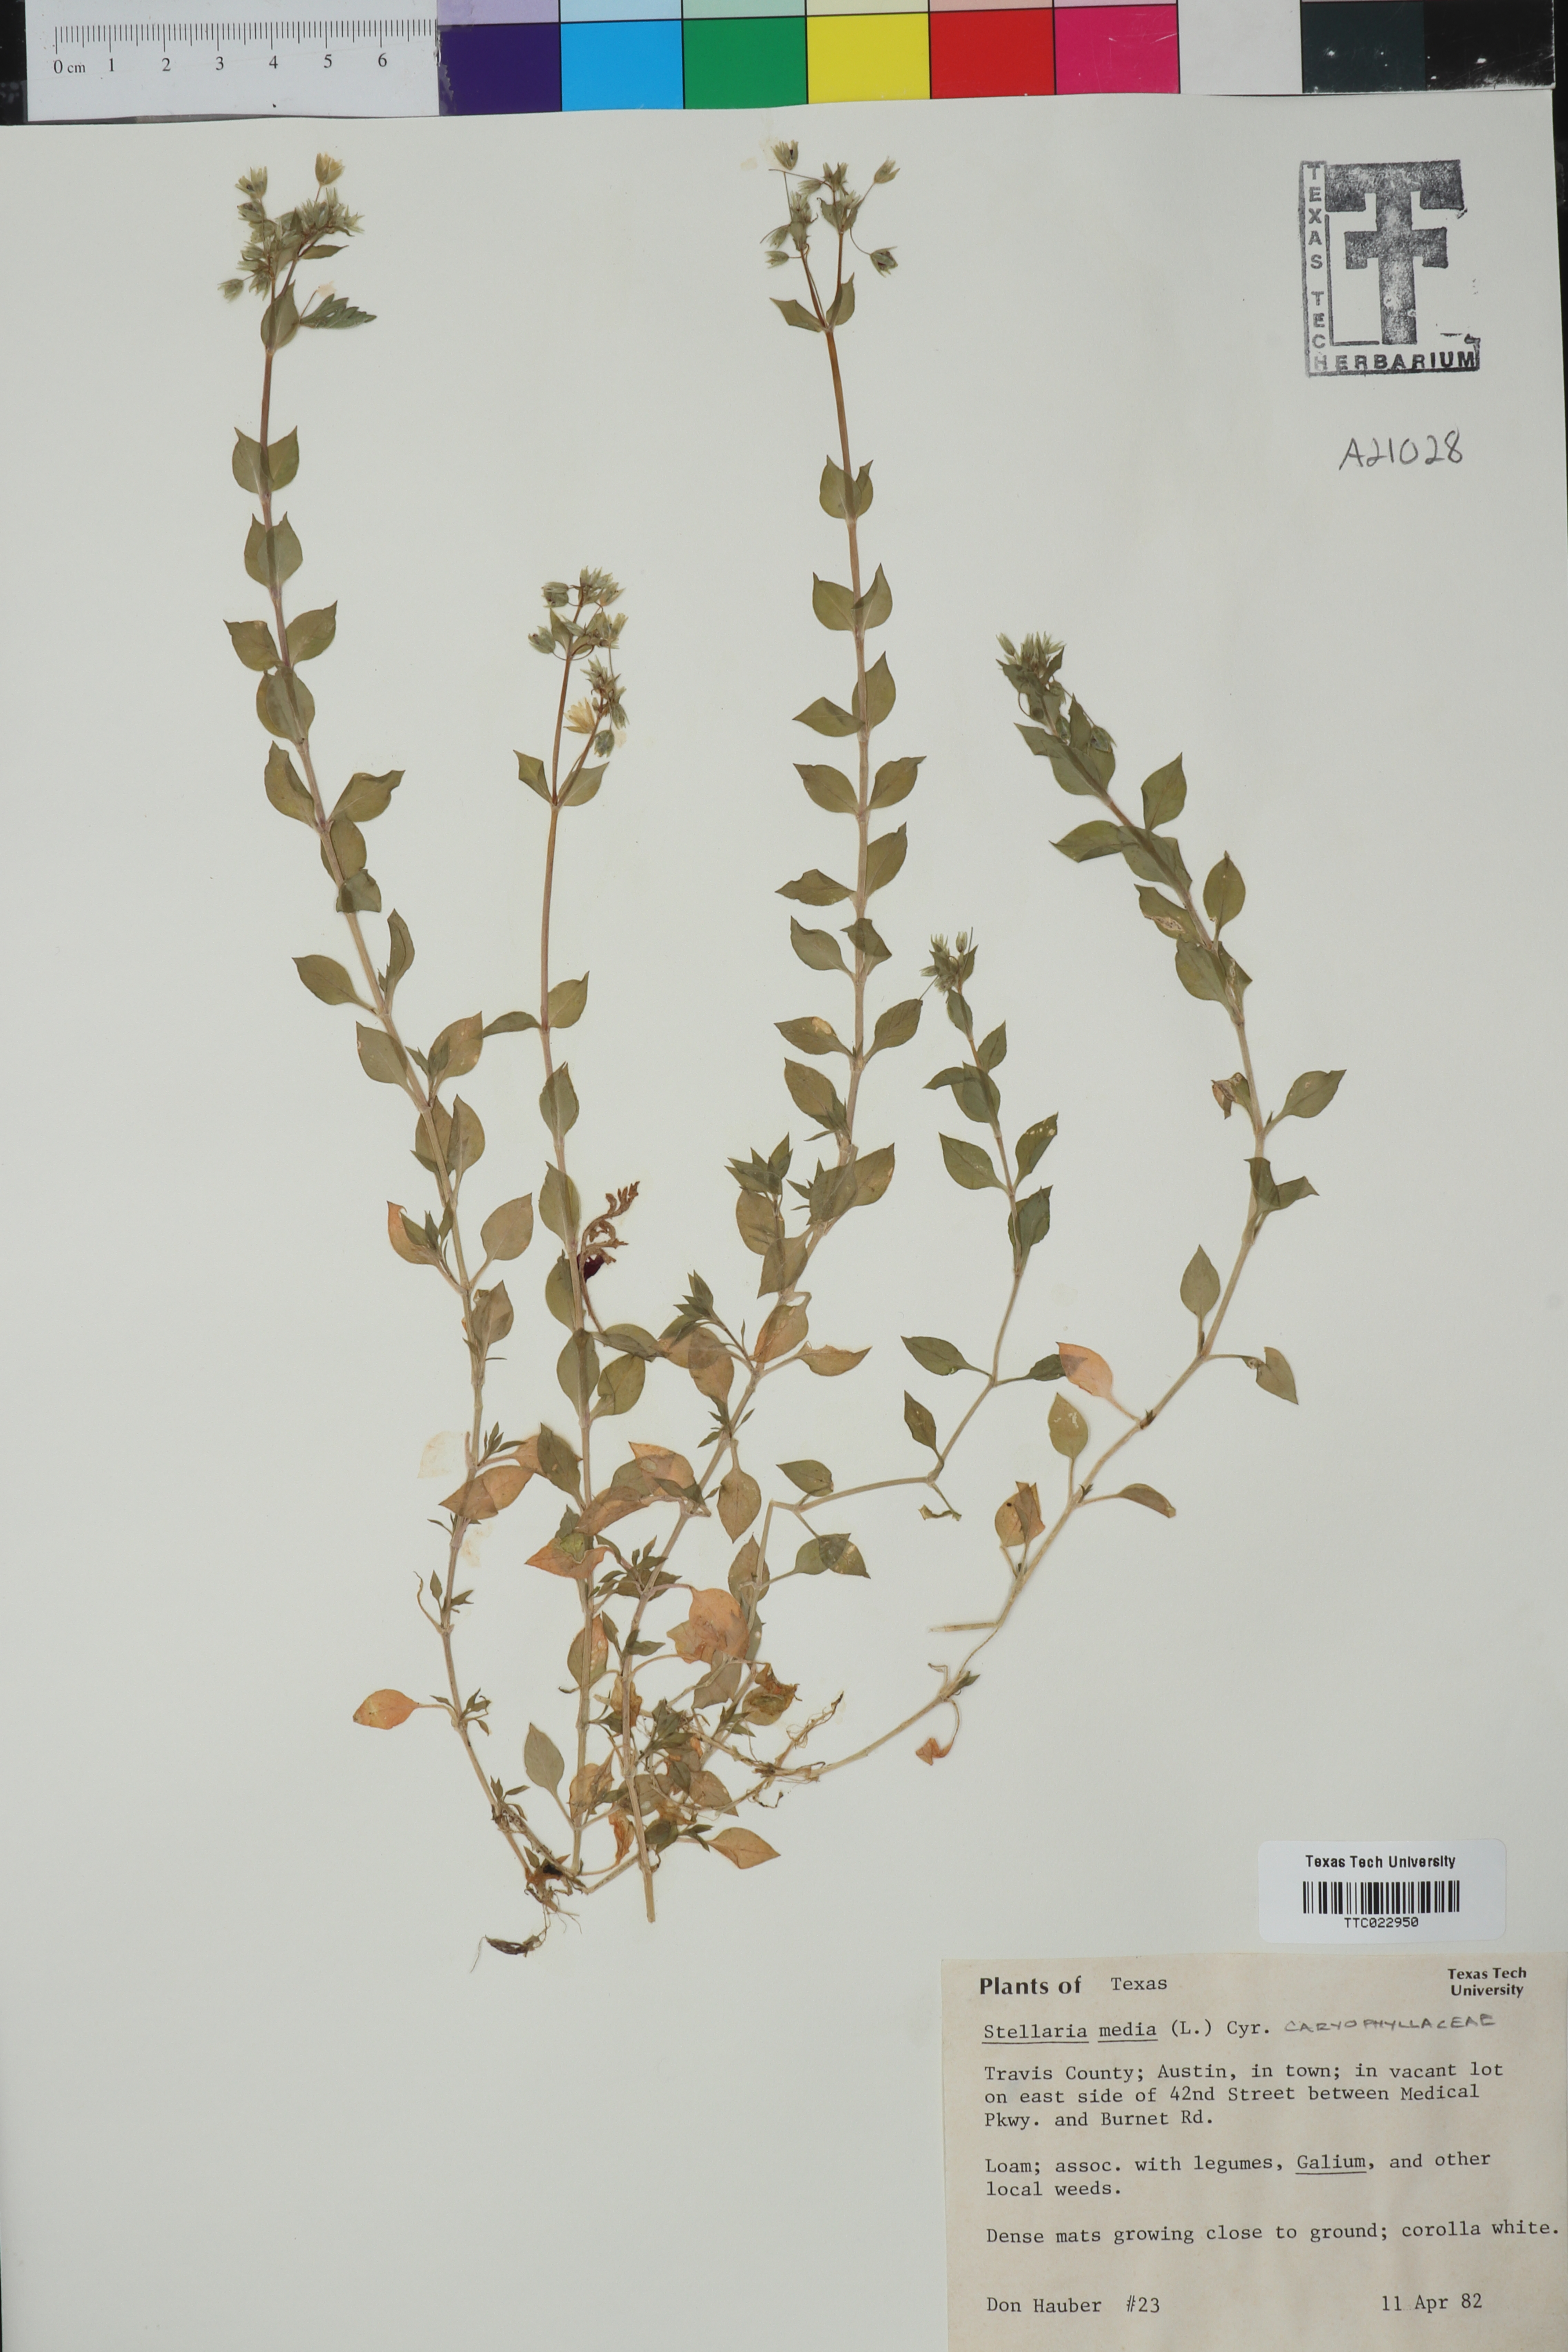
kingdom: Plantae
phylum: Tracheophyta
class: Magnoliopsida
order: Caryophyllales
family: Caryophyllaceae
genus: Stellaria
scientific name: Stellaria media
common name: Common chickweed
